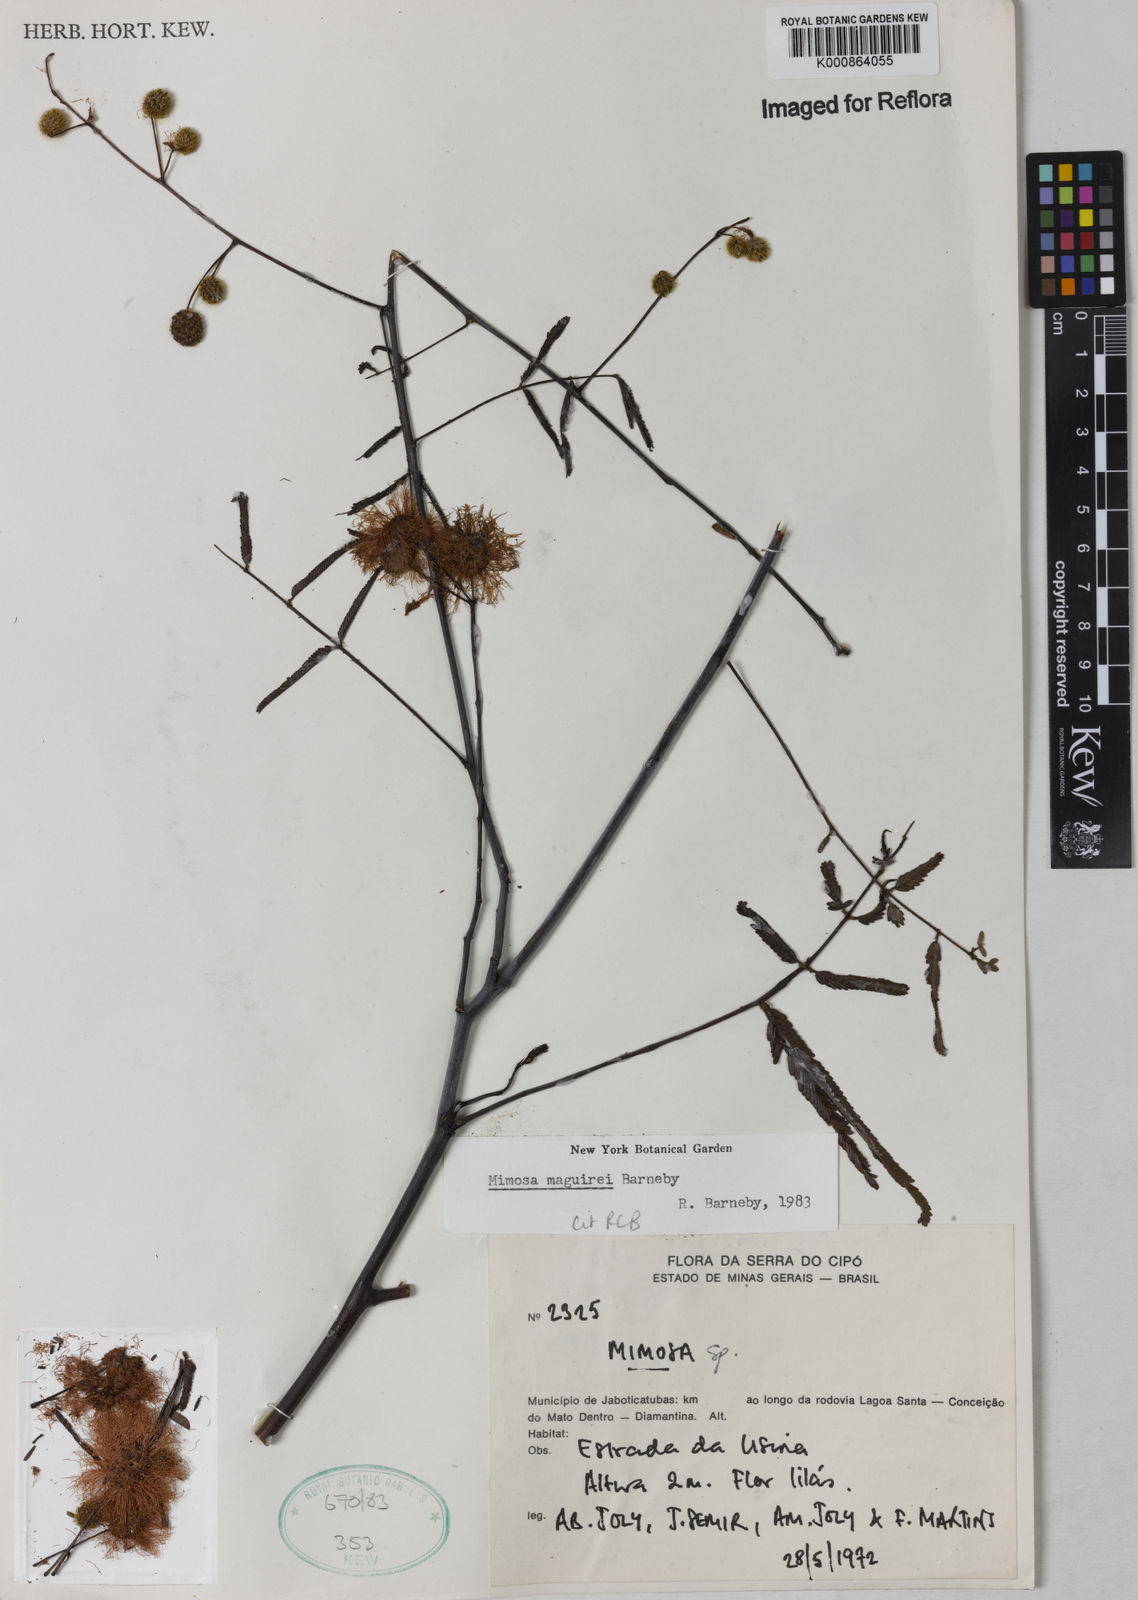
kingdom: Plantae
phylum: Tracheophyta
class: Magnoliopsida
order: Fabales
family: Fabaceae
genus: Mimosa
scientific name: Mimosa maguirei
